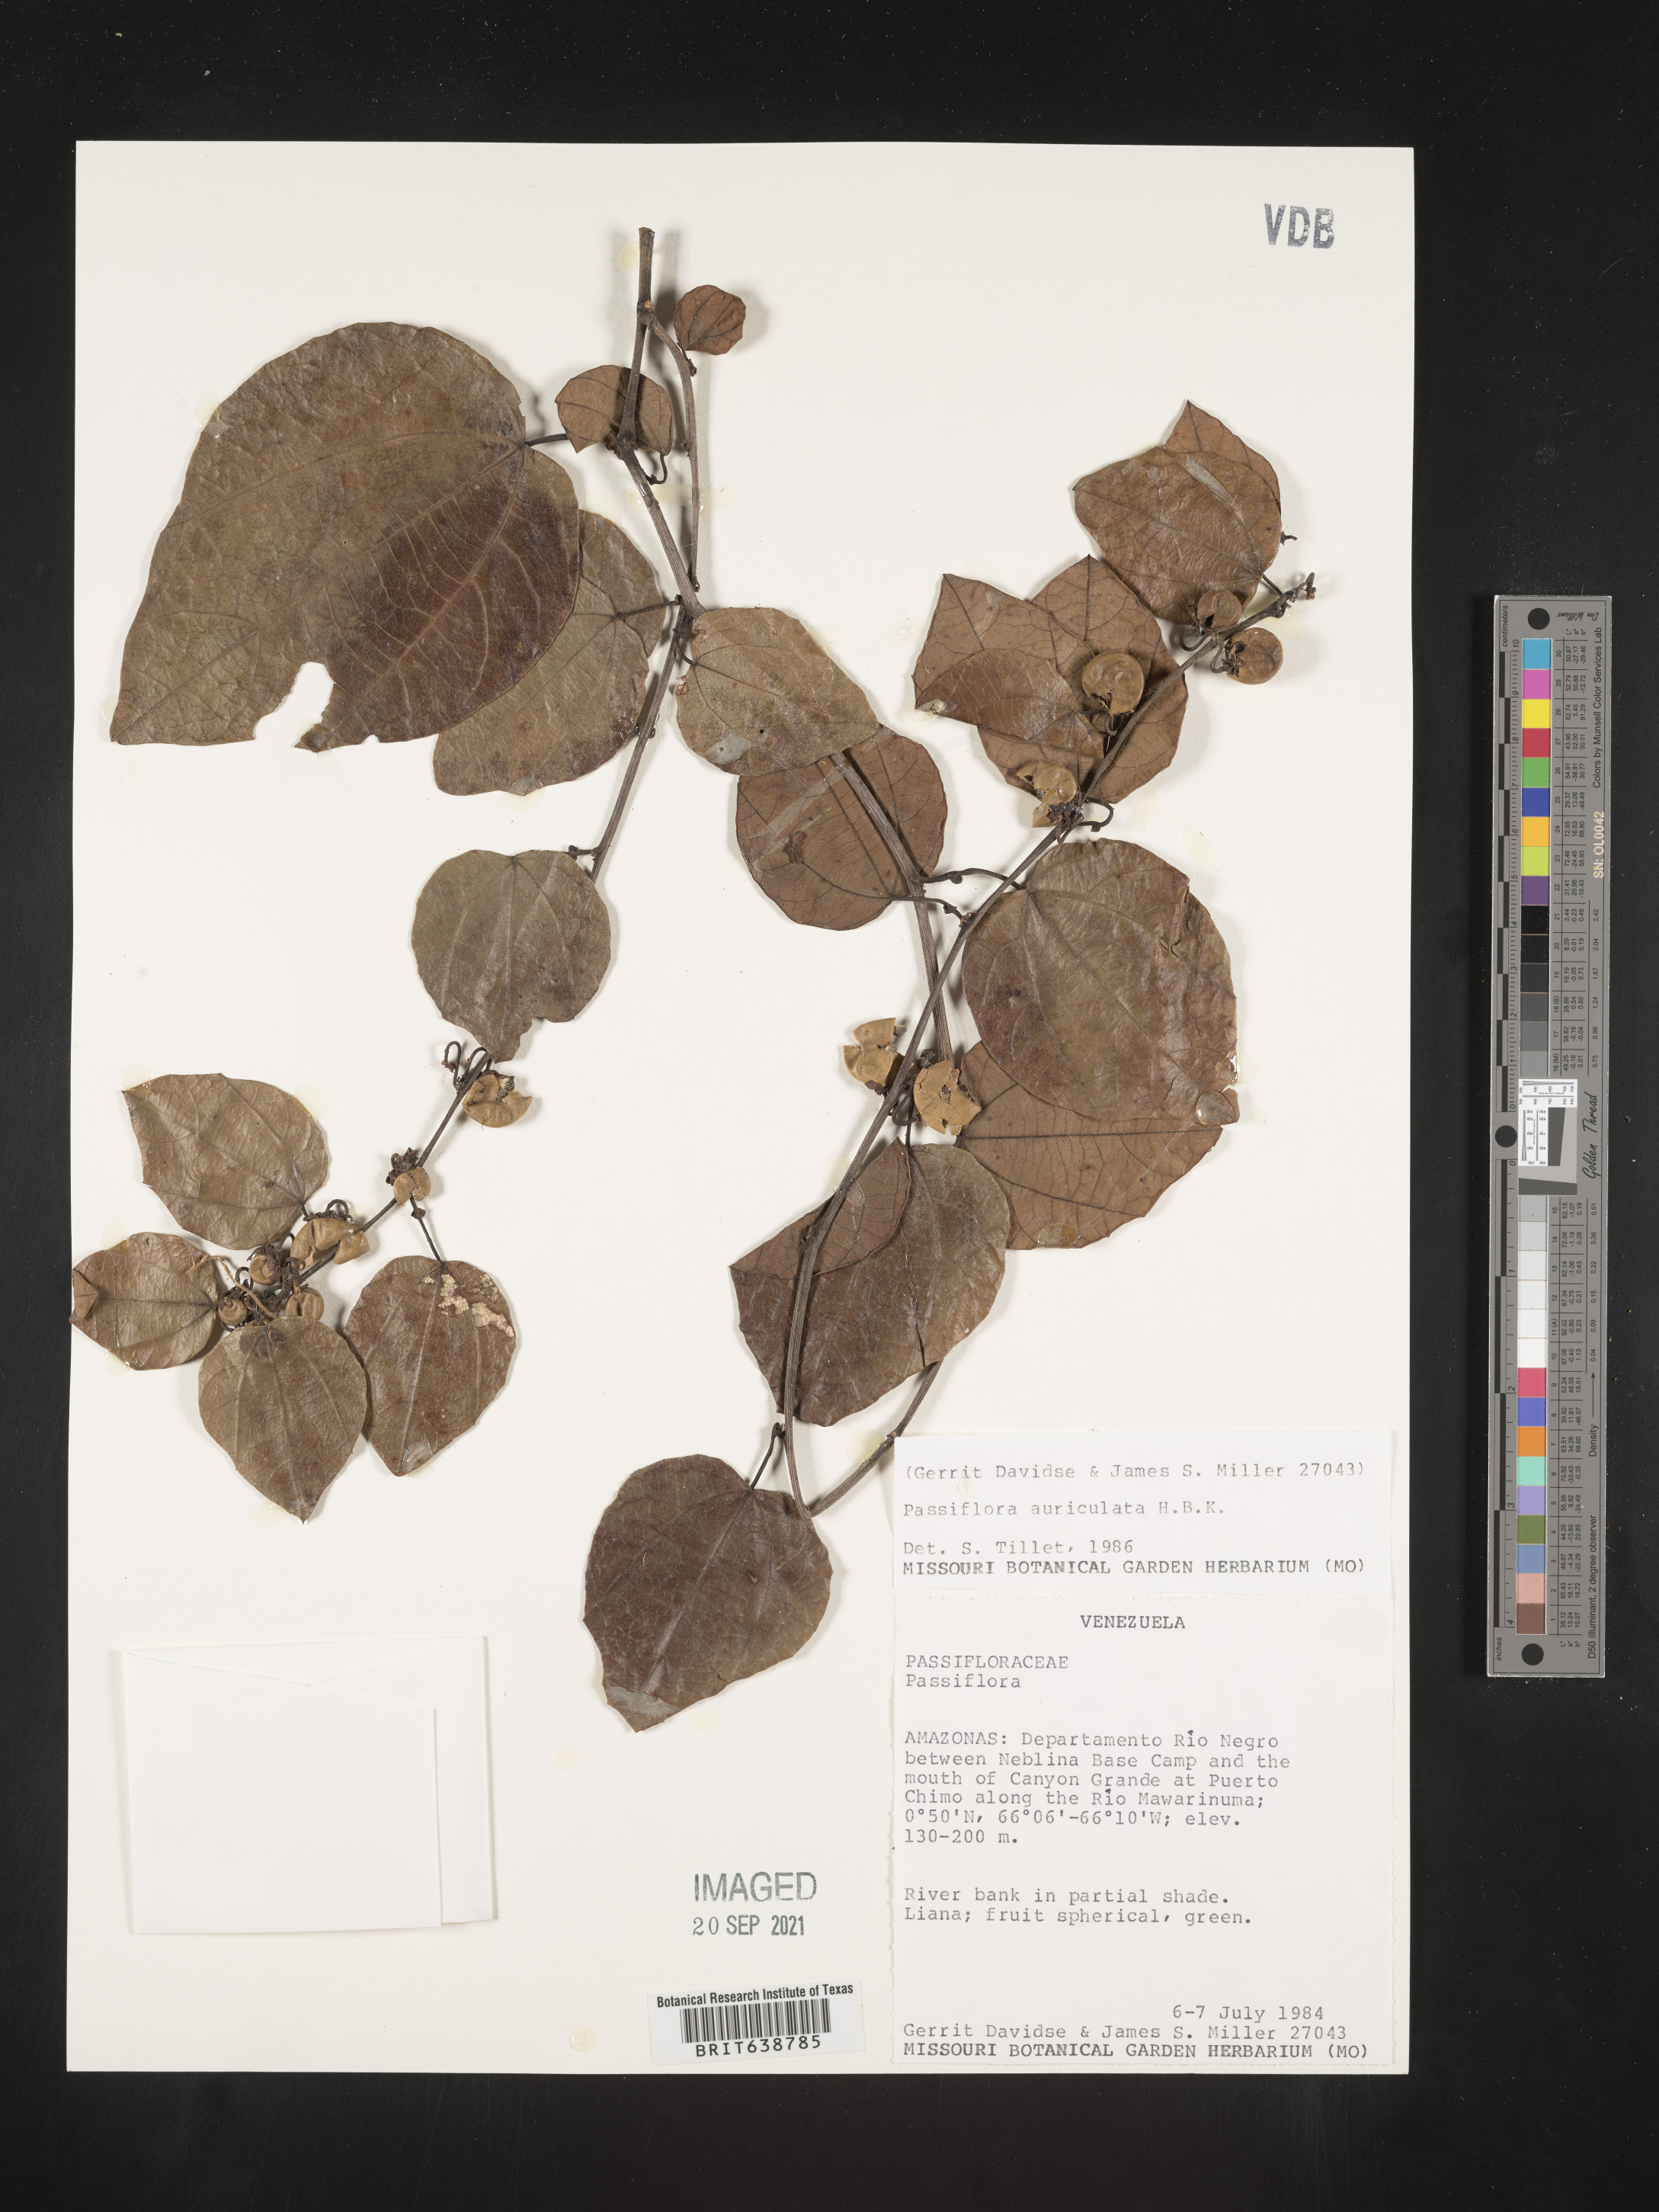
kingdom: Plantae
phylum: Tracheophyta
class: Magnoliopsida
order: Malpighiales
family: Passifloraceae
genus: Passiflora
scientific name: Passiflora
